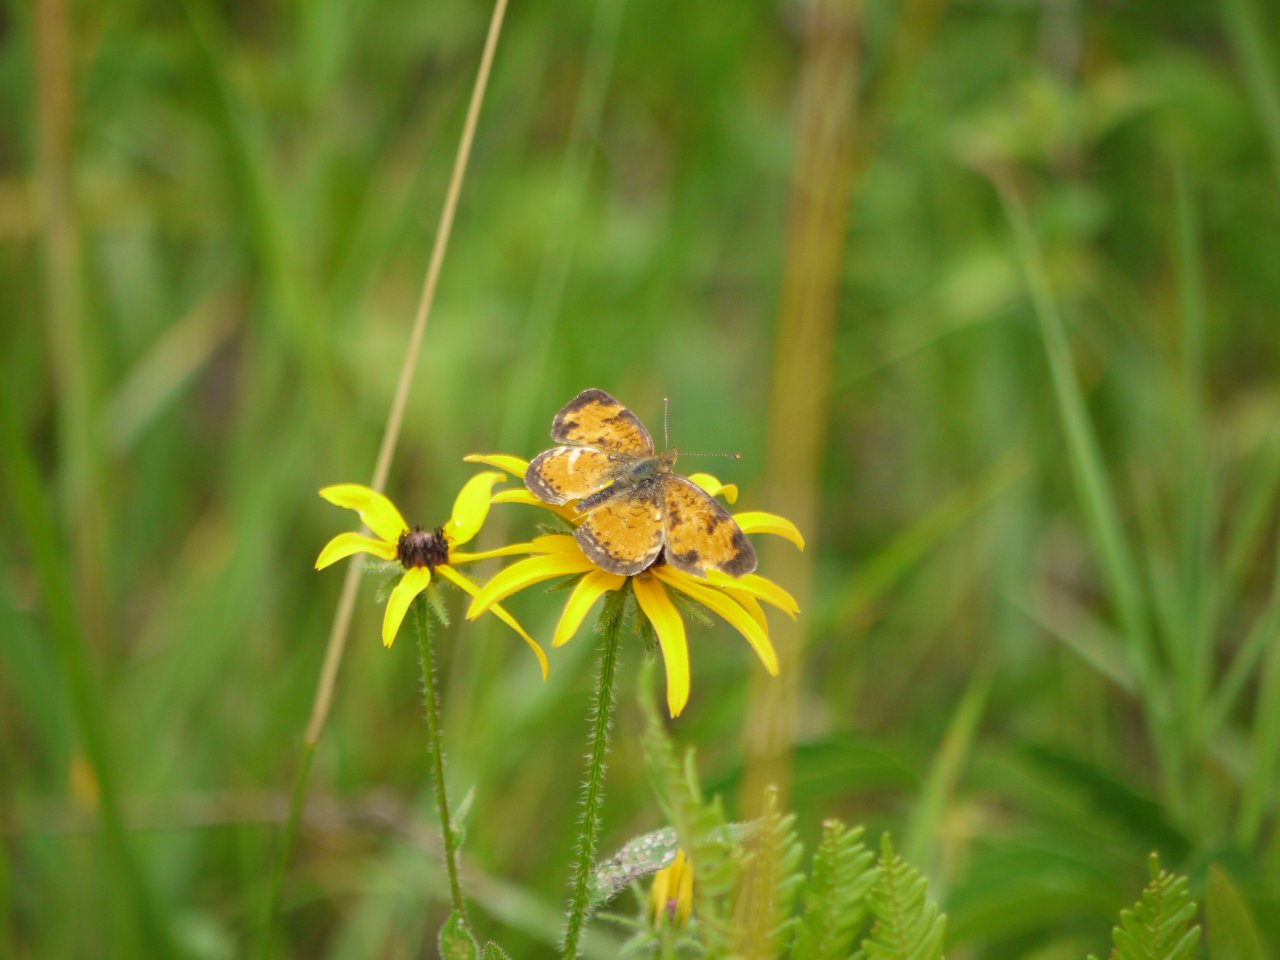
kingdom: Animalia
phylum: Arthropoda
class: Insecta
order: Lepidoptera
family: Nymphalidae
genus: Phyciodes
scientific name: Phyciodes
